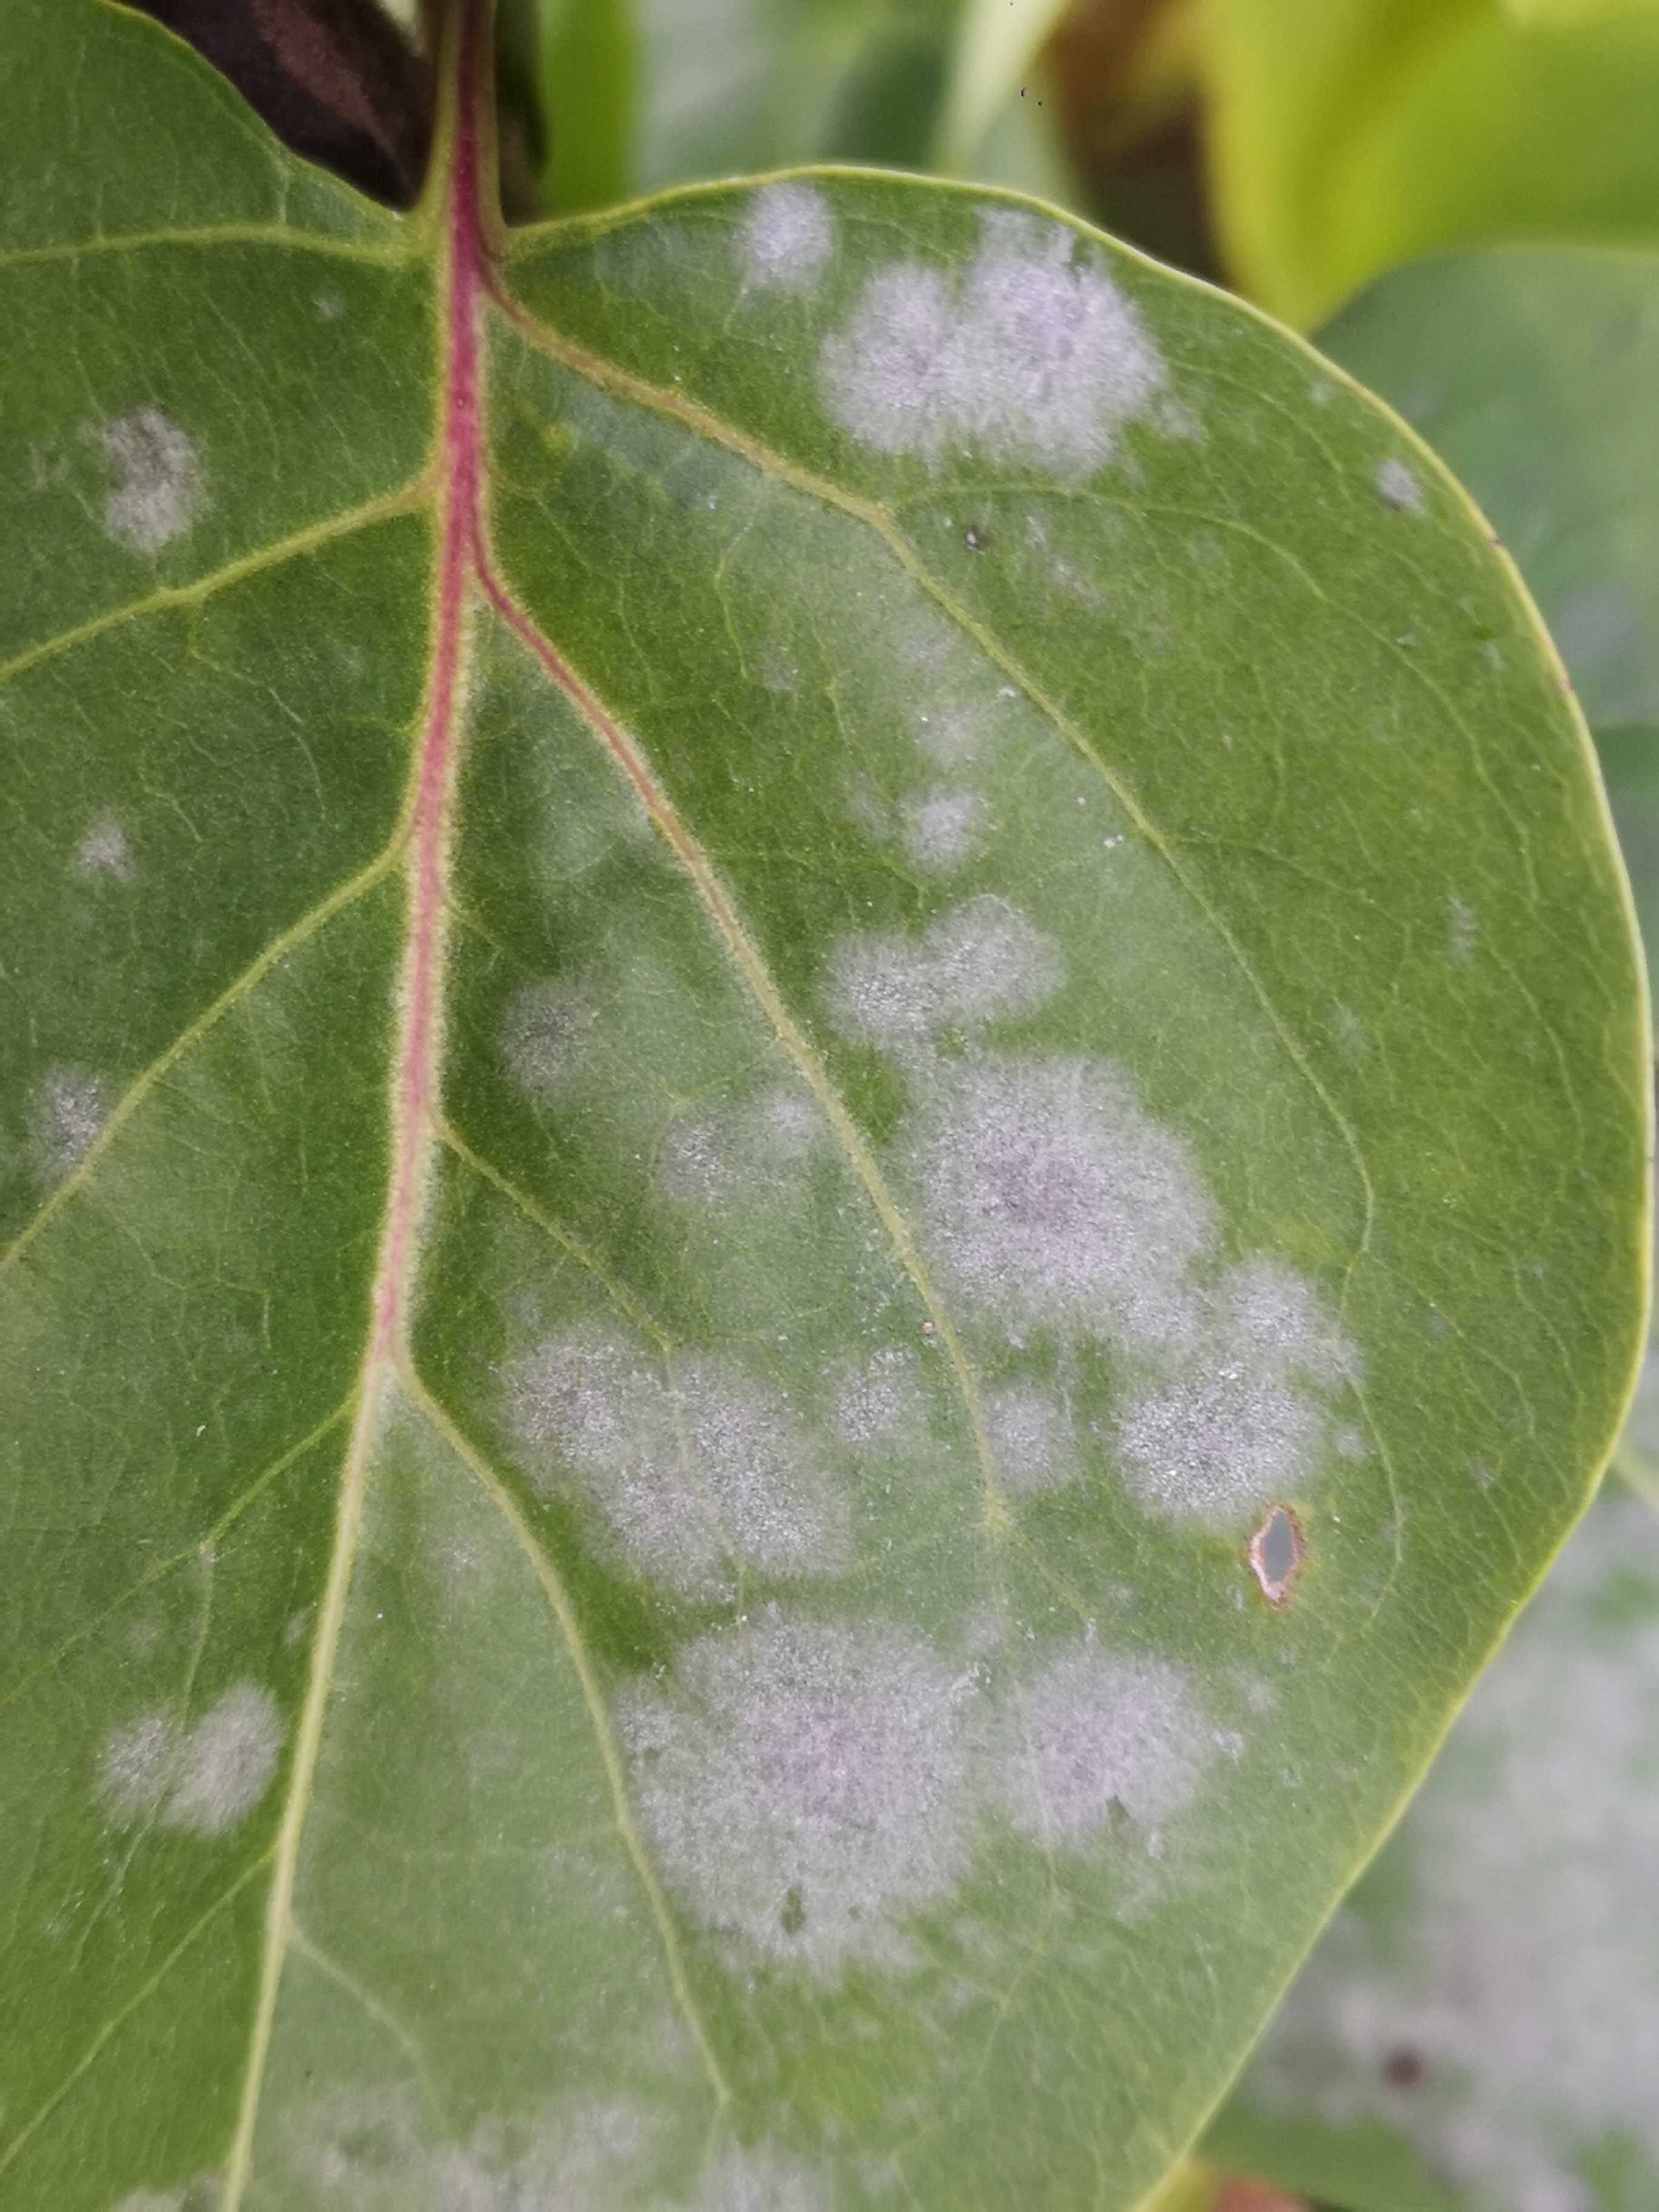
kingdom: Fungi
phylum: Ascomycota
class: Leotiomycetes
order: Helotiales
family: Erysiphaceae
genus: Erysiphe
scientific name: Erysiphe
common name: meldug
